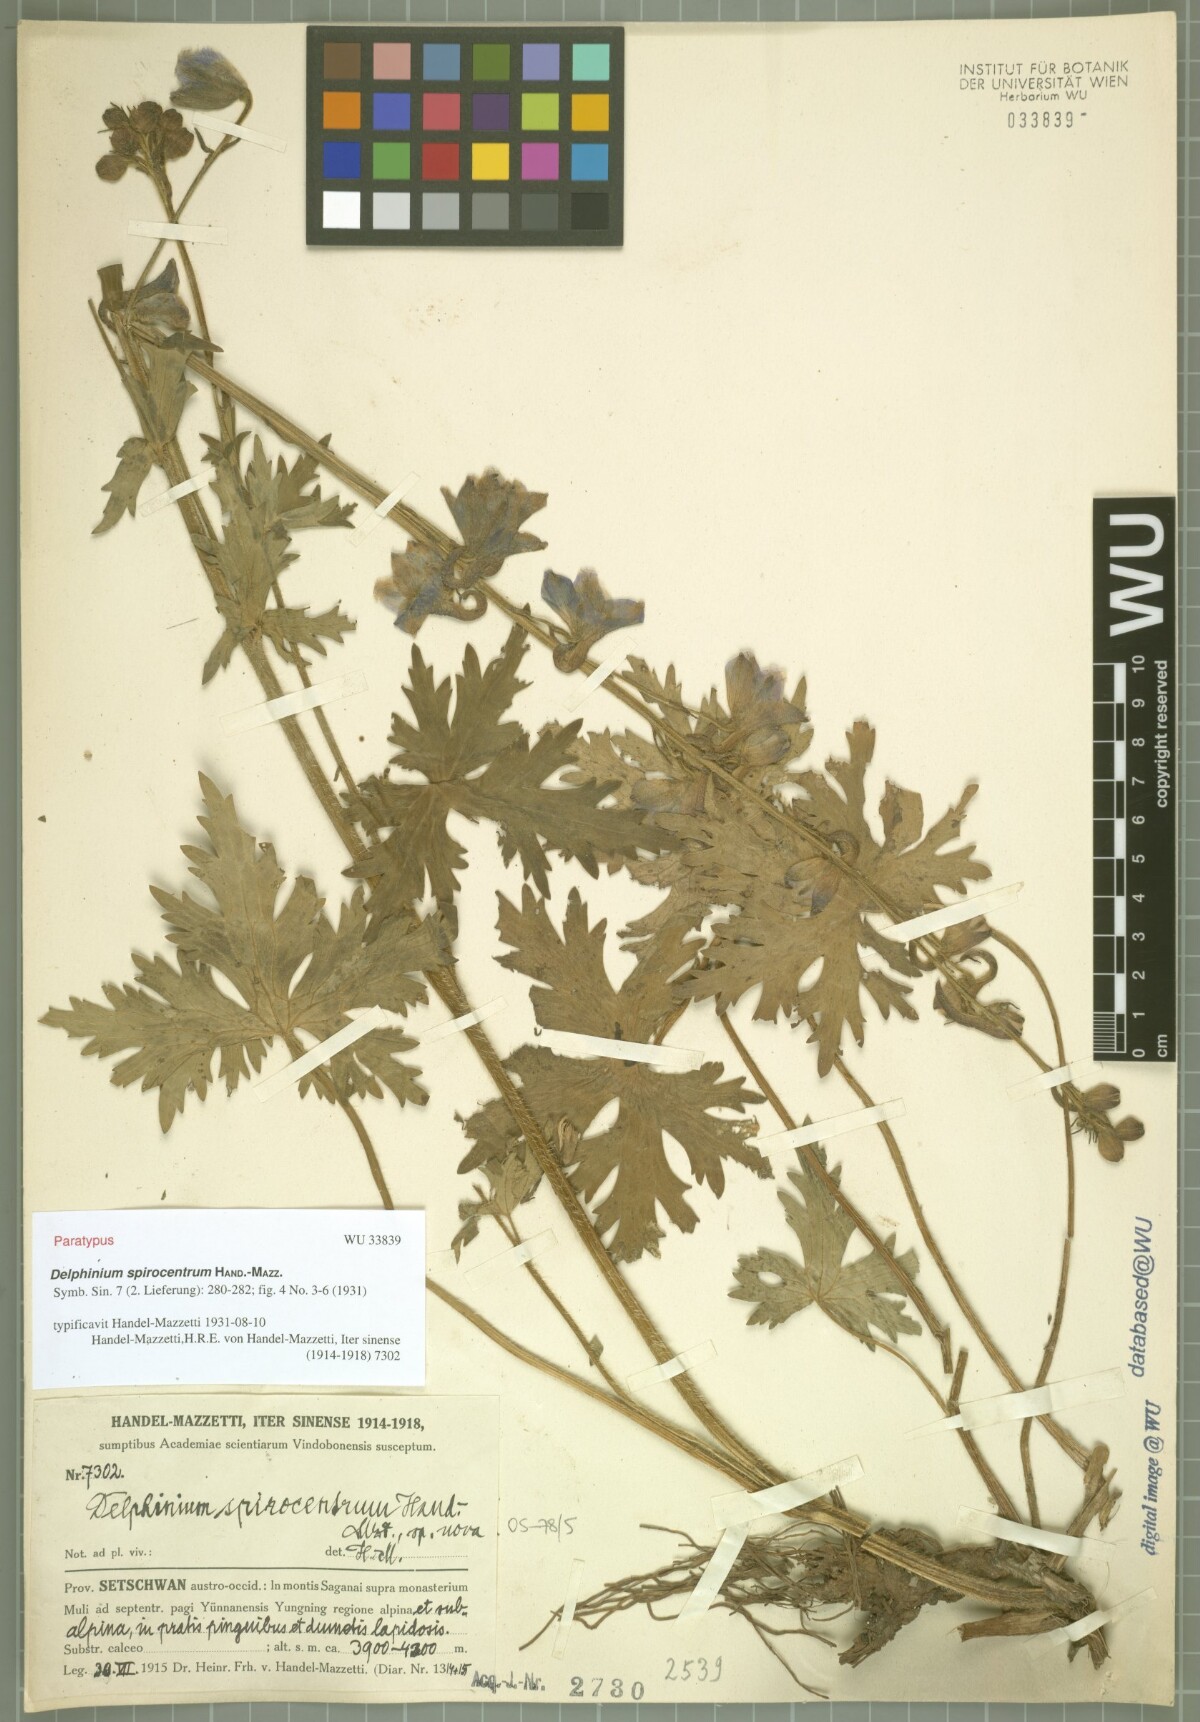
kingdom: Plantae
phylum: Tracheophyta
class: Magnoliopsida
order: Ranunculales
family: Ranunculaceae
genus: Delphinium
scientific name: Delphinium spirocentrum
